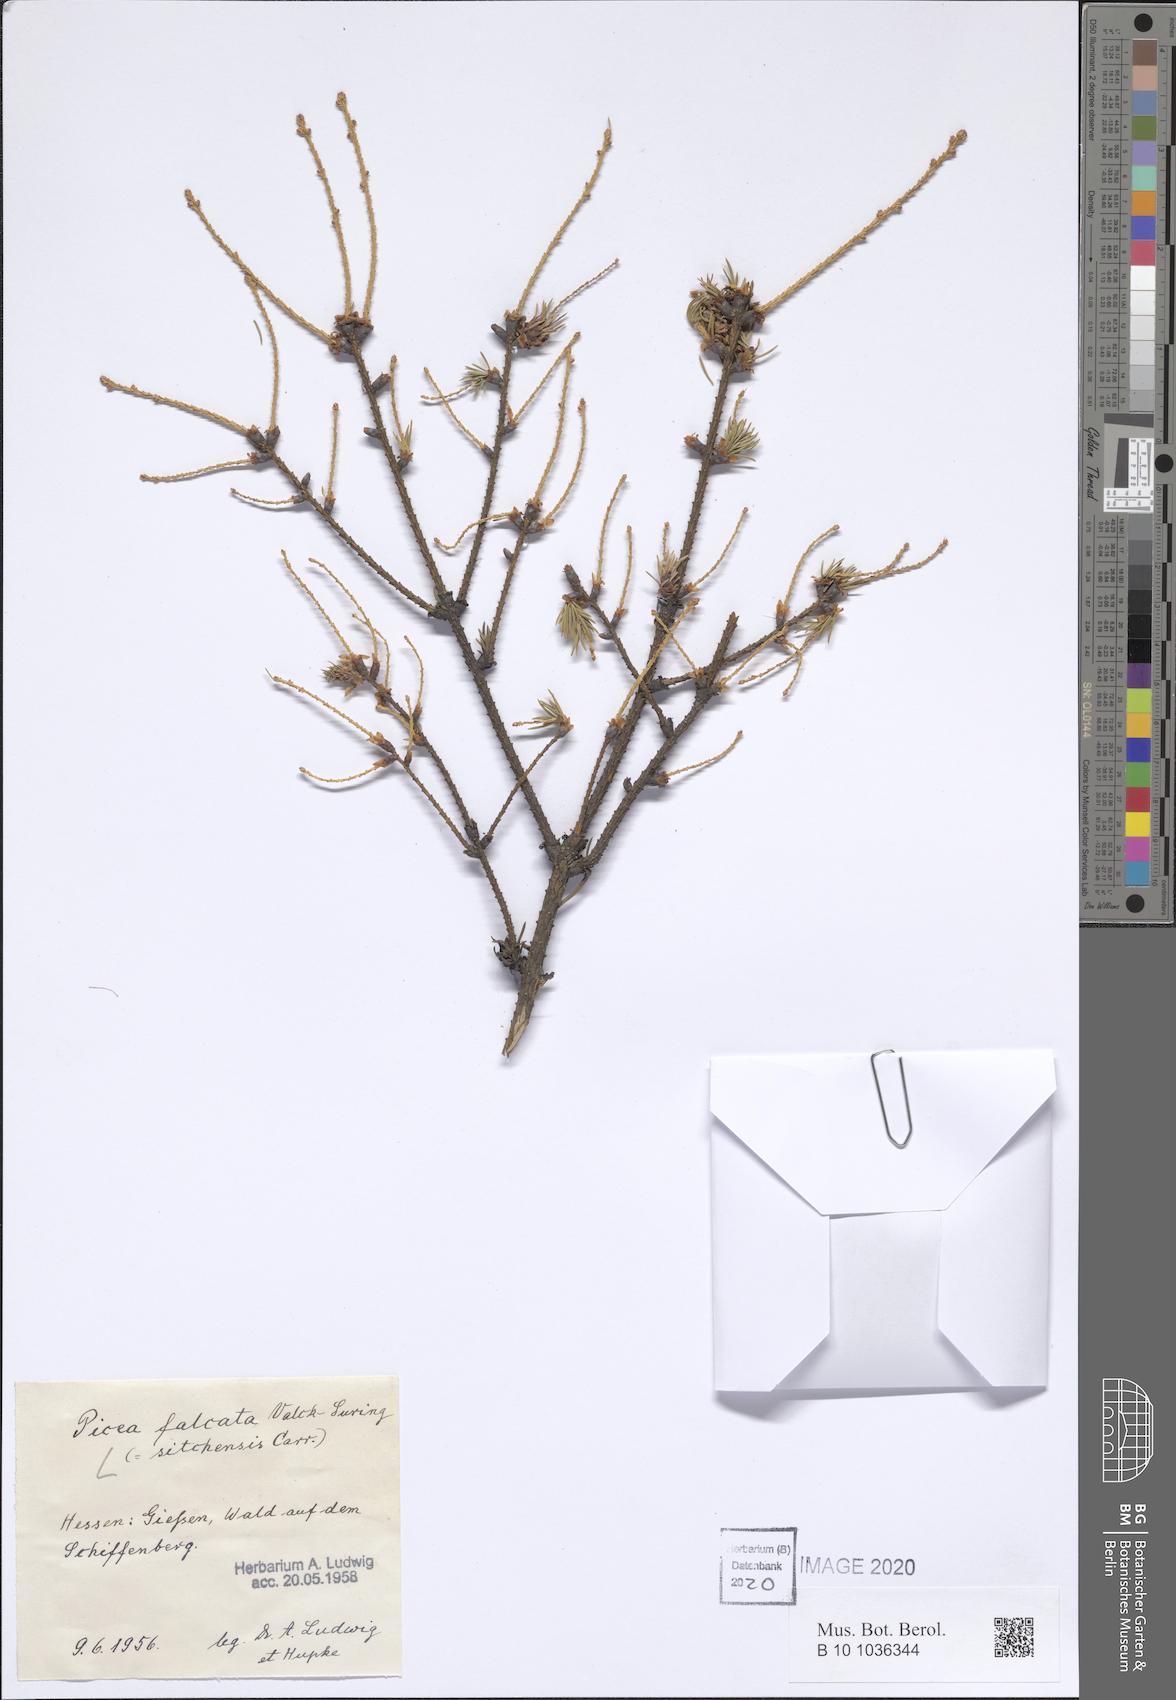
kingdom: Plantae
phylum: Tracheophyta
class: Pinopsida
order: Pinales
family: Pinaceae
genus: Picea
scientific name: Picea sitchensis
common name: Sitka spruce
